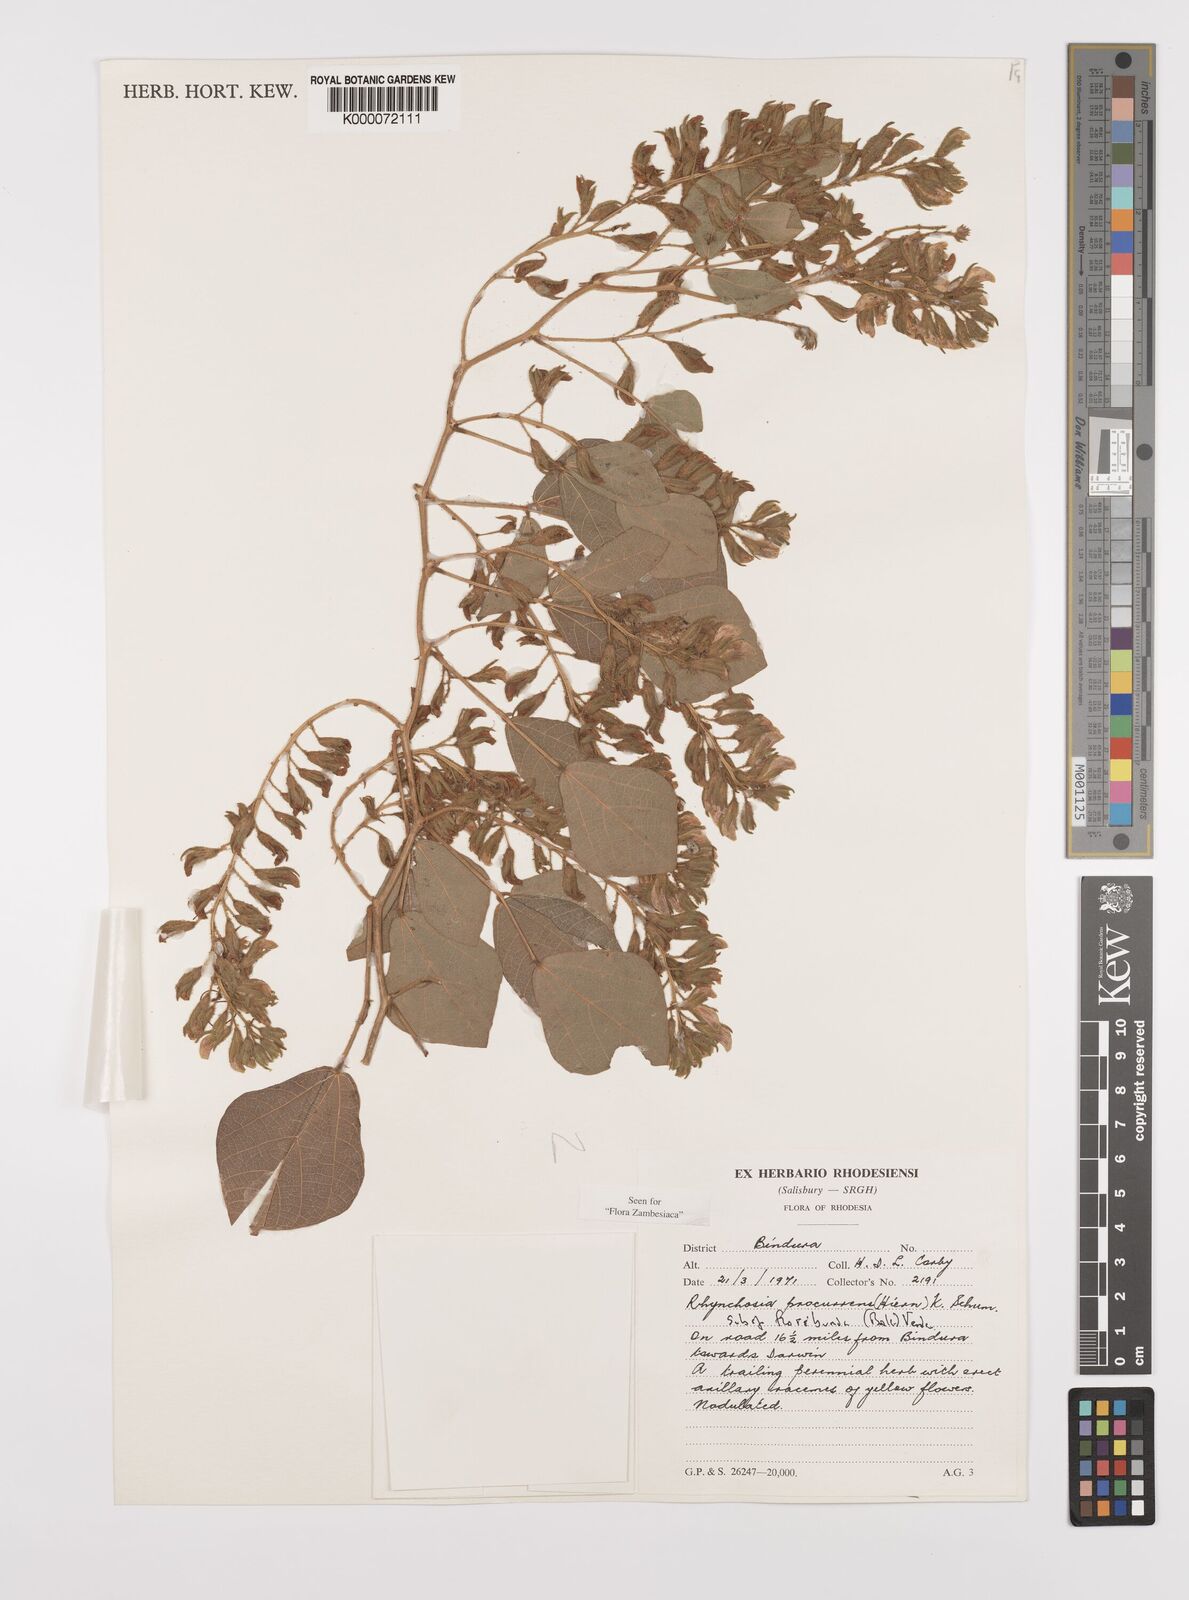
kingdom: Plantae
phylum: Tracheophyta
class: Magnoliopsida
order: Fabales
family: Fabaceae
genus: Rhynchosia
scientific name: Rhynchosia procurrens
